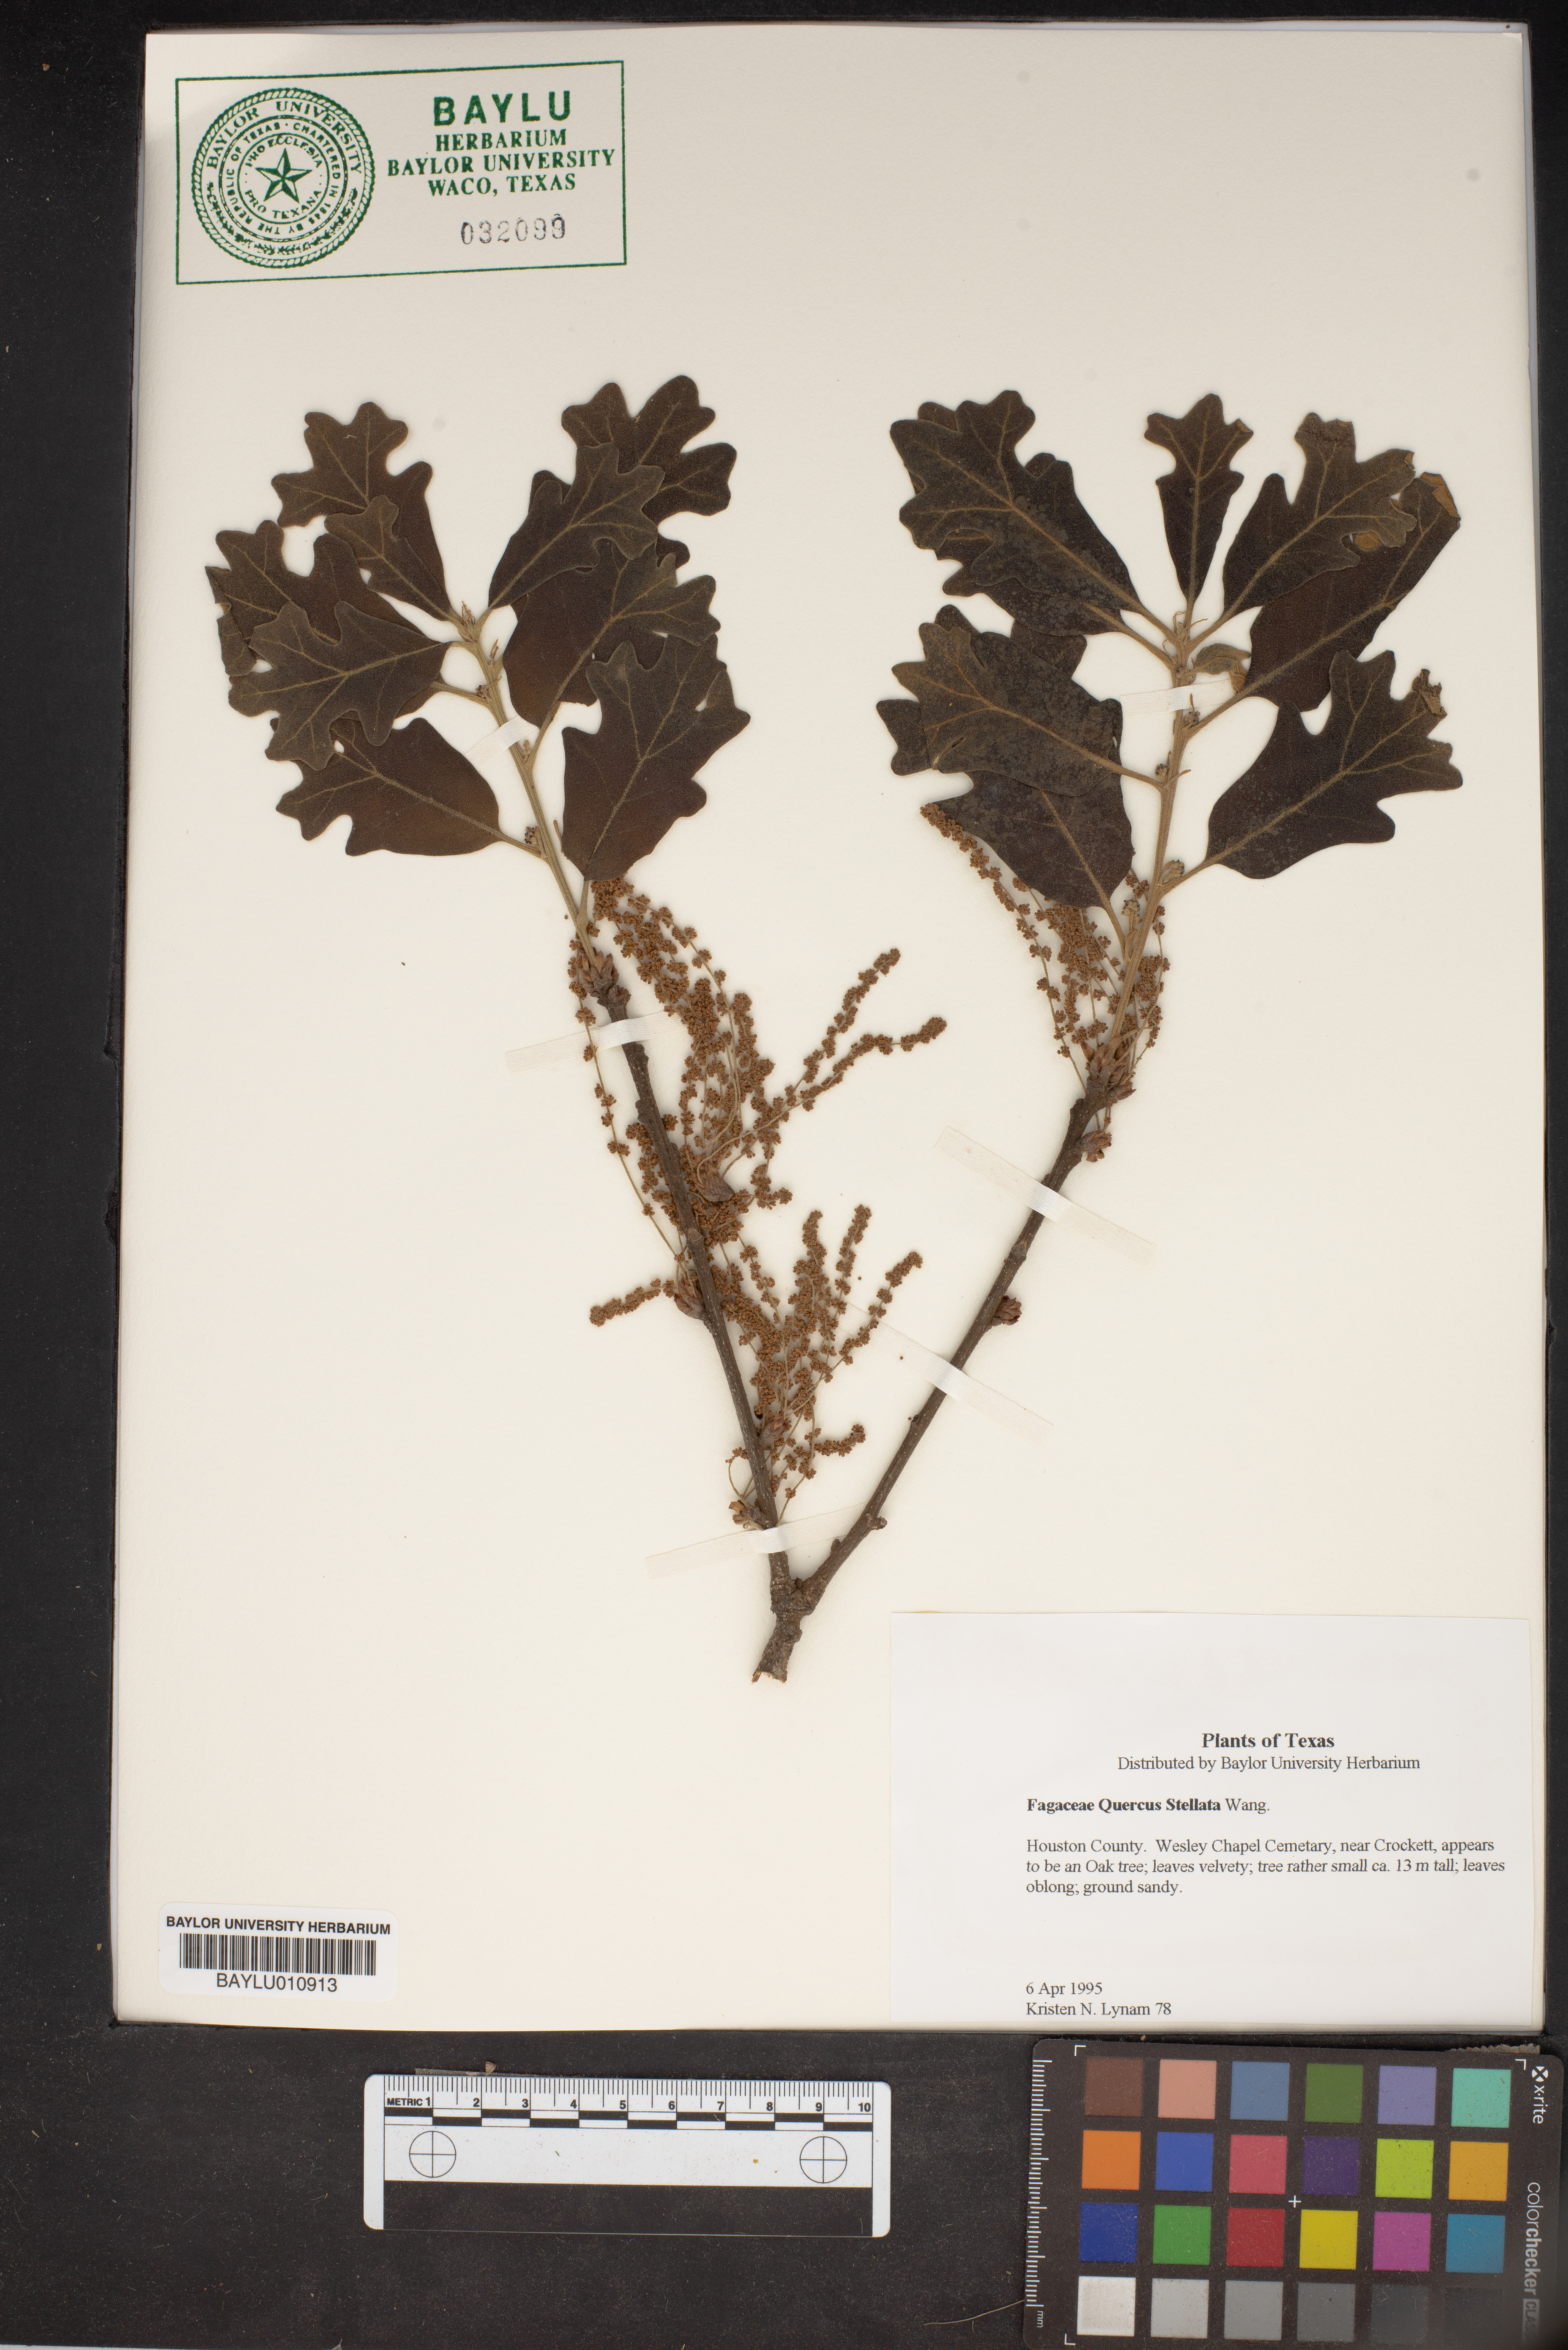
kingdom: Plantae
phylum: Tracheophyta
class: Magnoliopsida
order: Fagales
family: Fagaceae
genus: Quercus
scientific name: Quercus stellata
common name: Post oak
